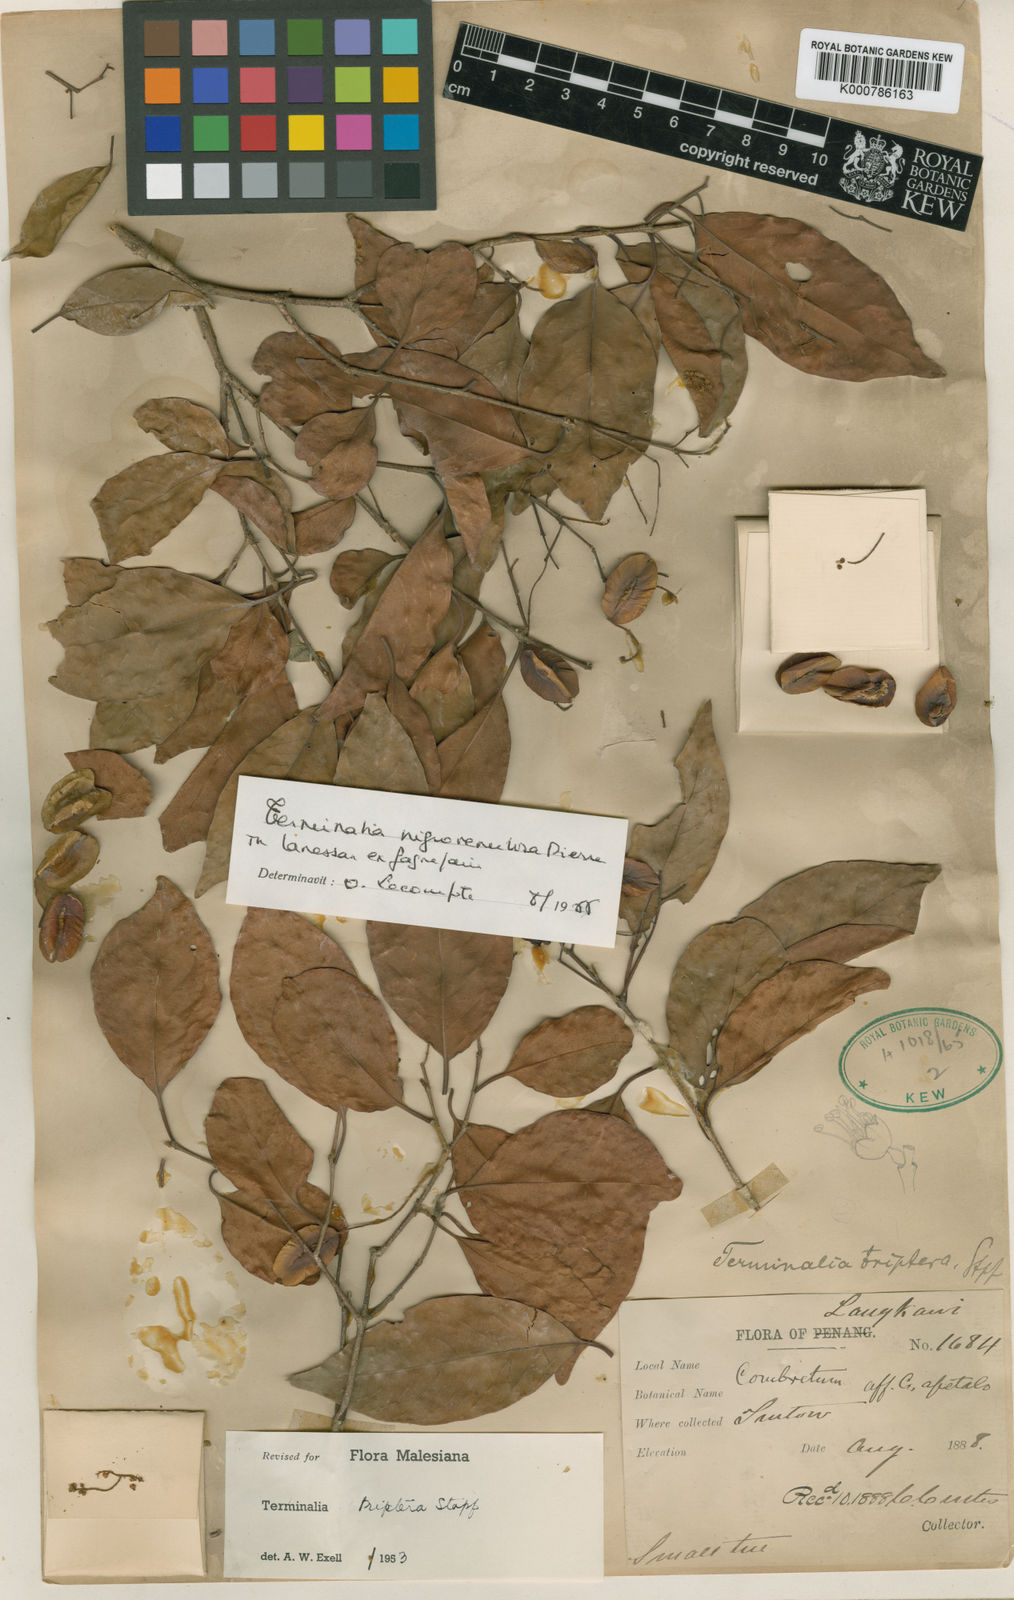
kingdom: Plantae
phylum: Tracheophyta
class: Magnoliopsida
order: Myrtales
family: Combretaceae
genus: Terminalia
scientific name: Terminalia triptera
